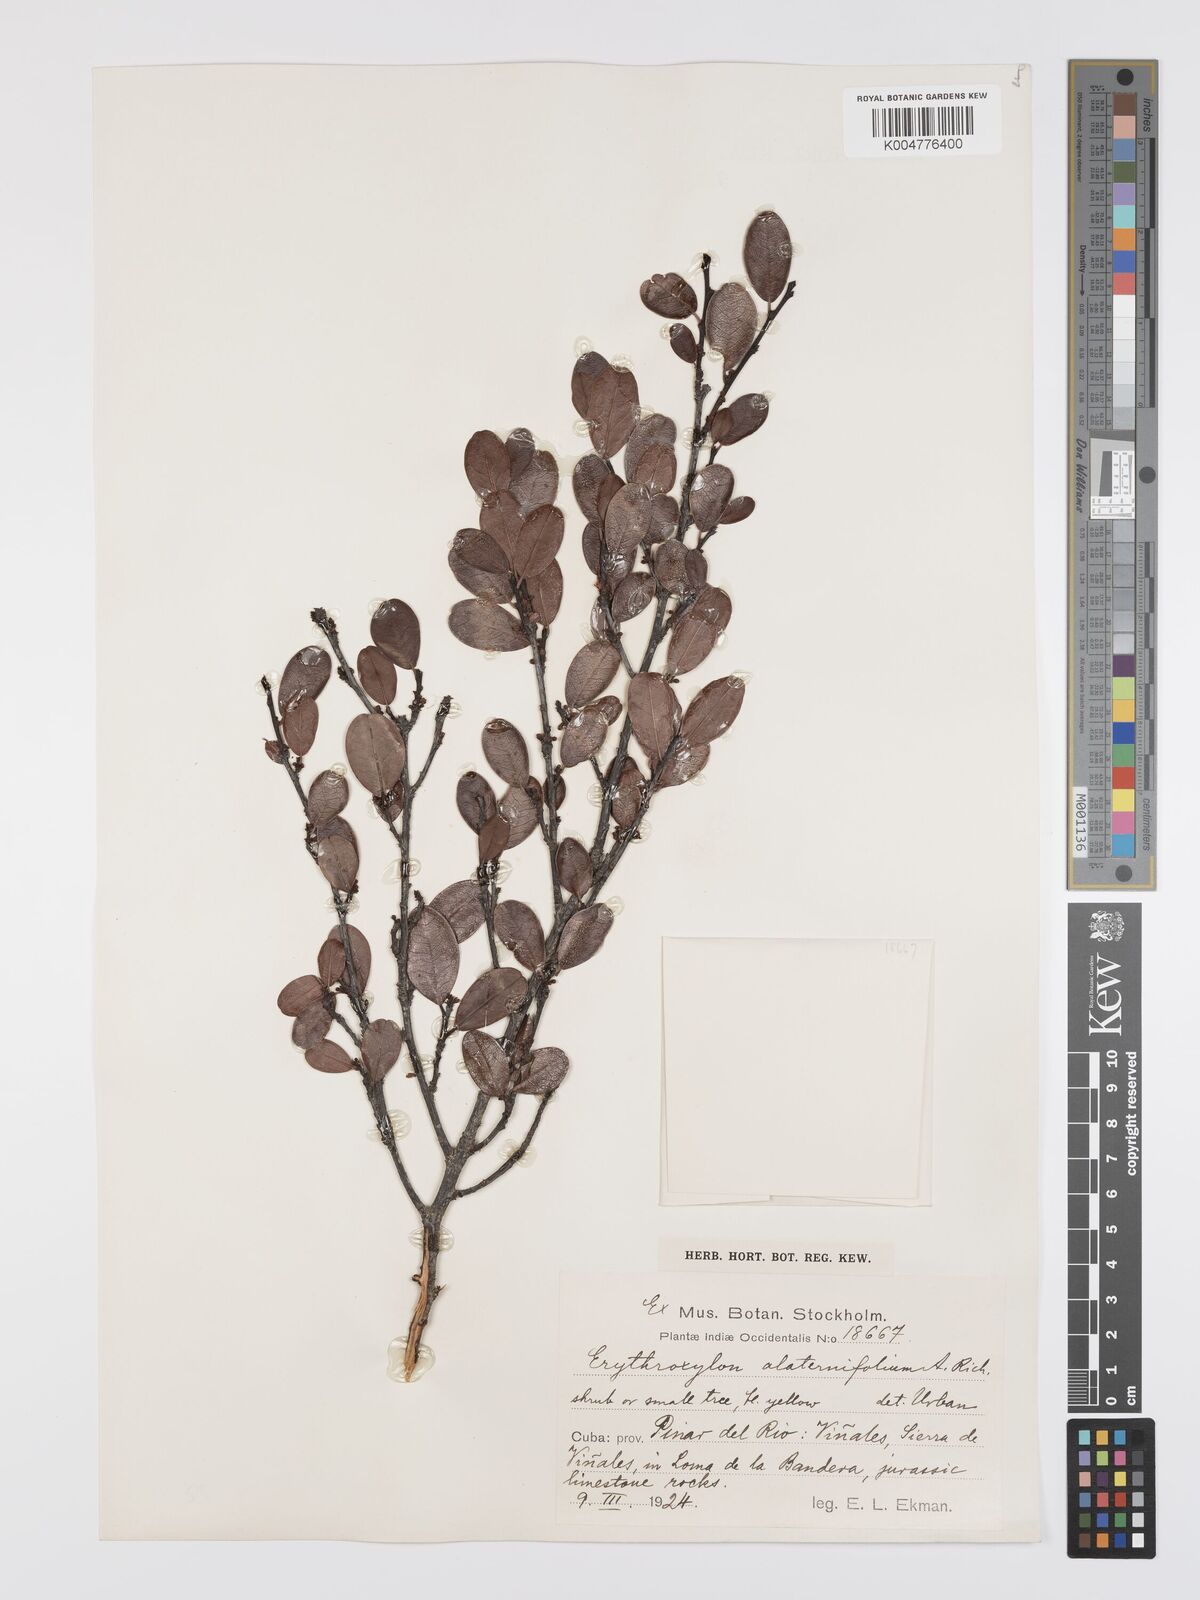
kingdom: Plantae
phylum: Tracheophyta
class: Magnoliopsida
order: Malpighiales
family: Erythroxylaceae
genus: Erythroxylum
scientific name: Erythroxylum alaternifolium
